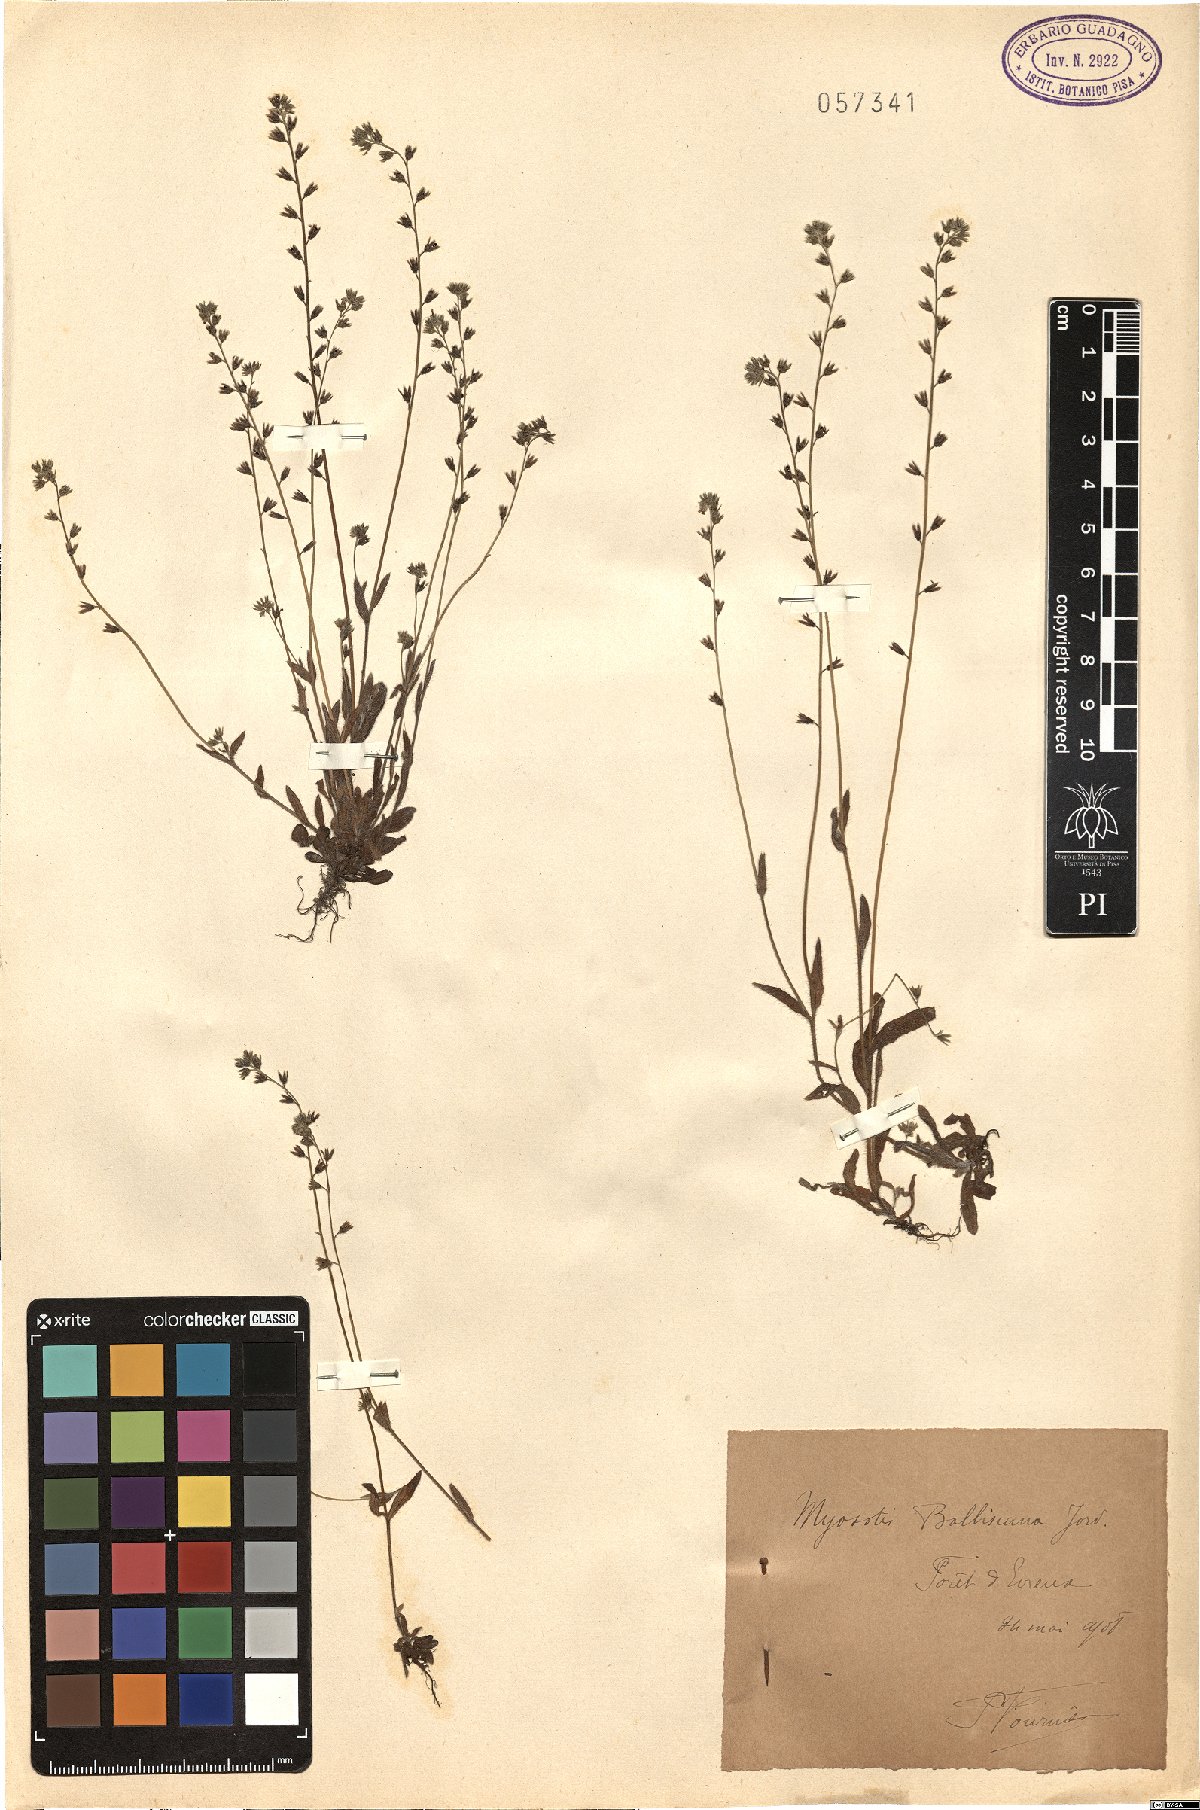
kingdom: Plantae
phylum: Tracheophyta
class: Magnoliopsida
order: Boraginales
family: Boraginaceae
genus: Myosotis
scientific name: Myosotis balbisiana
